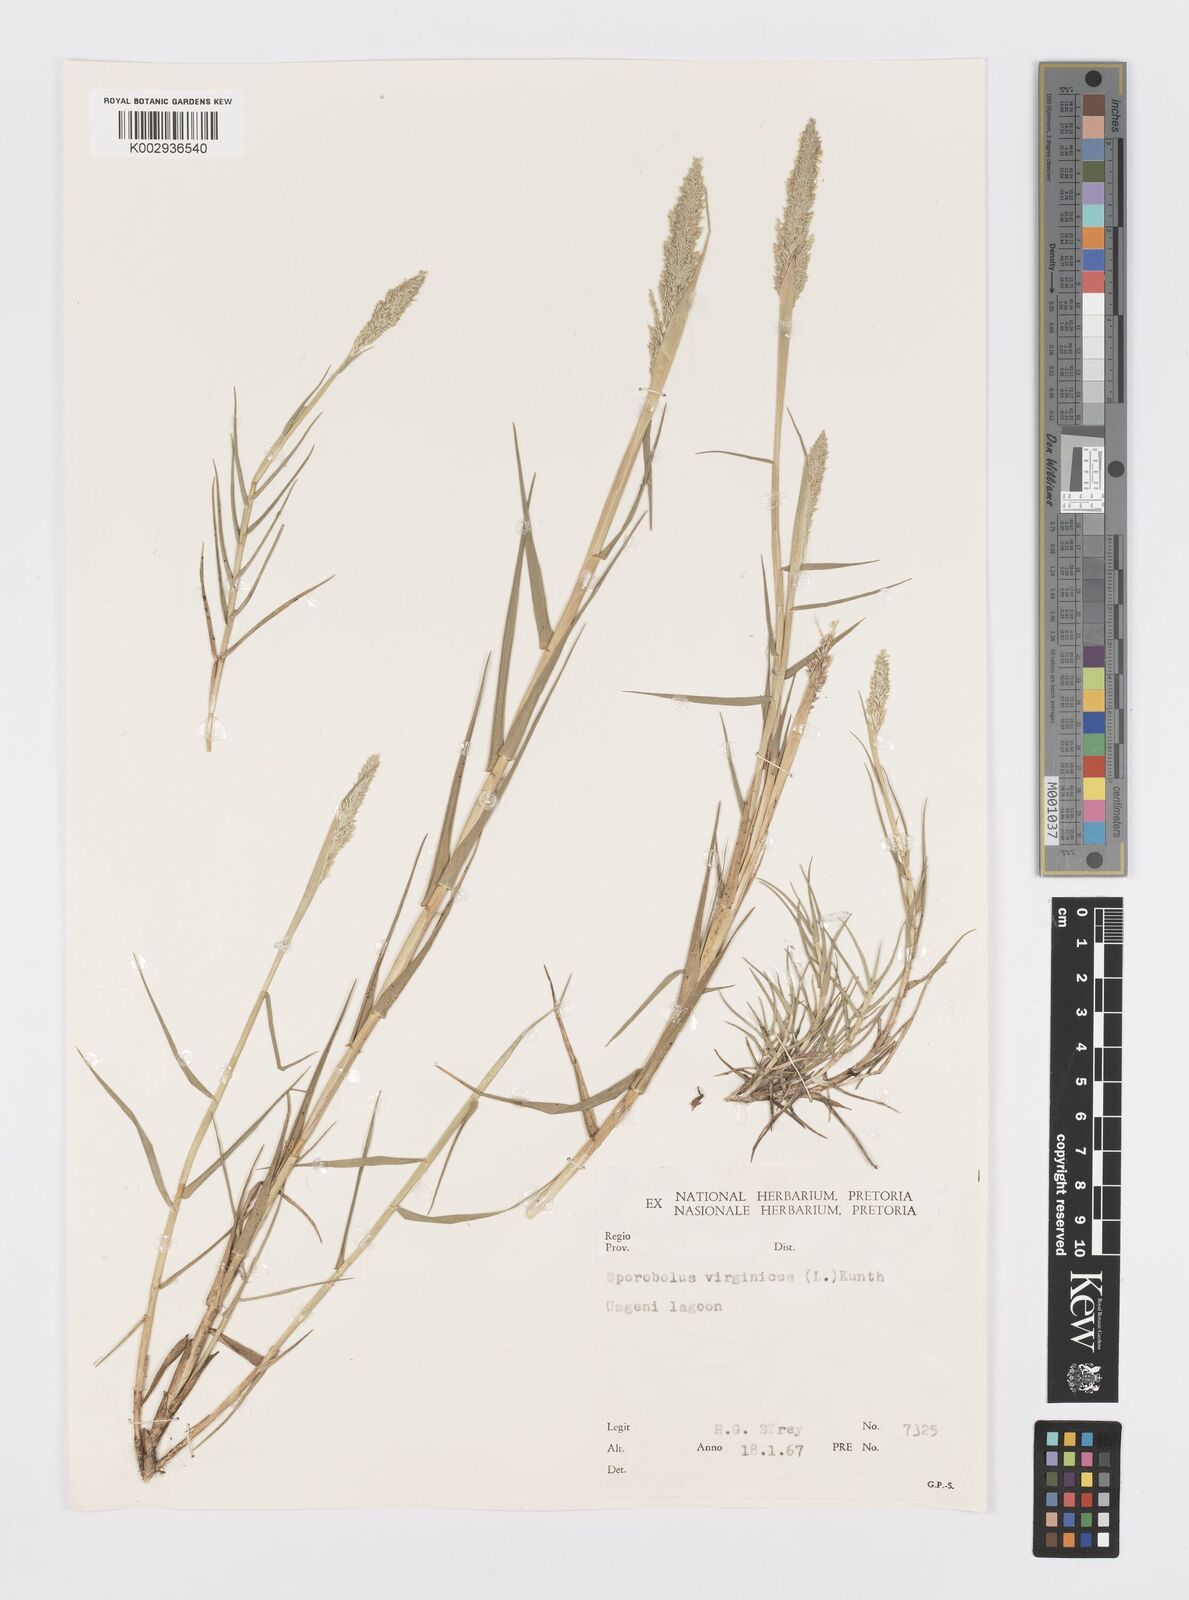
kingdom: Plantae
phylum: Tracheophyta
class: Liliopsida
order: Poales
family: Poaceae
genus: Sporobolus
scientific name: Sporobolus virginicus
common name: Beach dropseed
